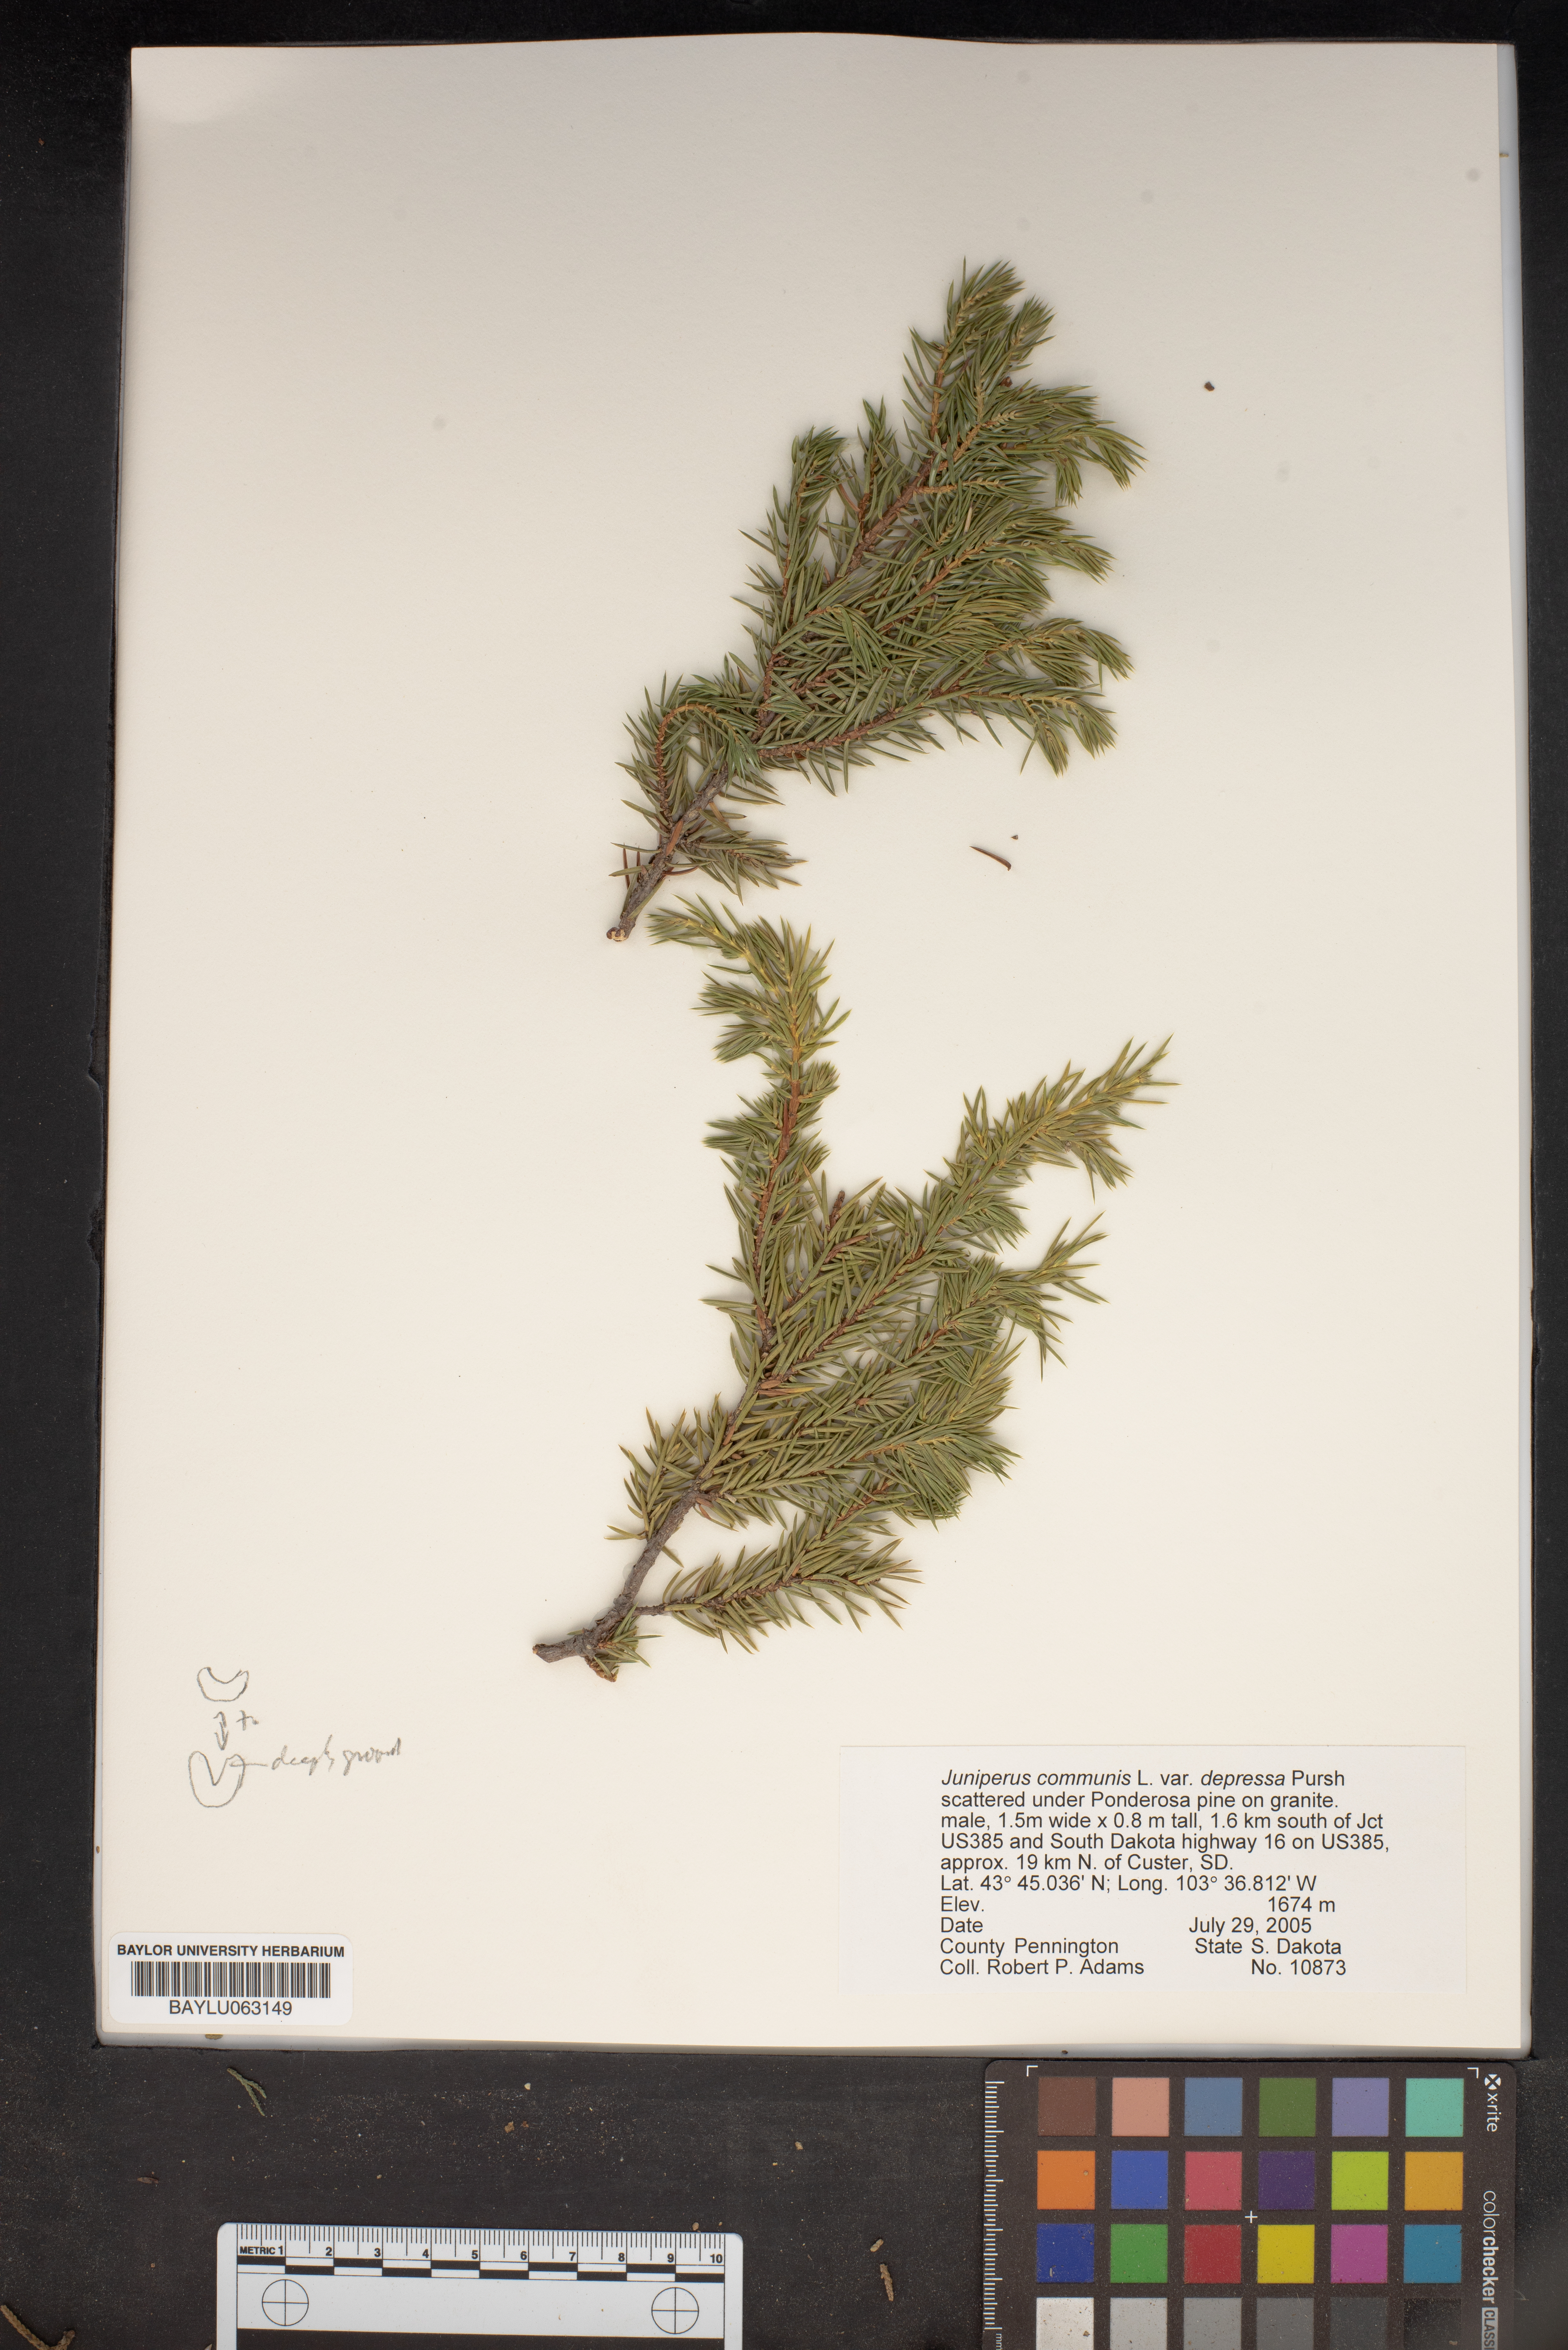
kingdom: Plantae
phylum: Tracheophyta
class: Pinopsida
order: Pinales
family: Cupressaceae
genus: Juniperus
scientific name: Juniperus communis
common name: Common juniper
